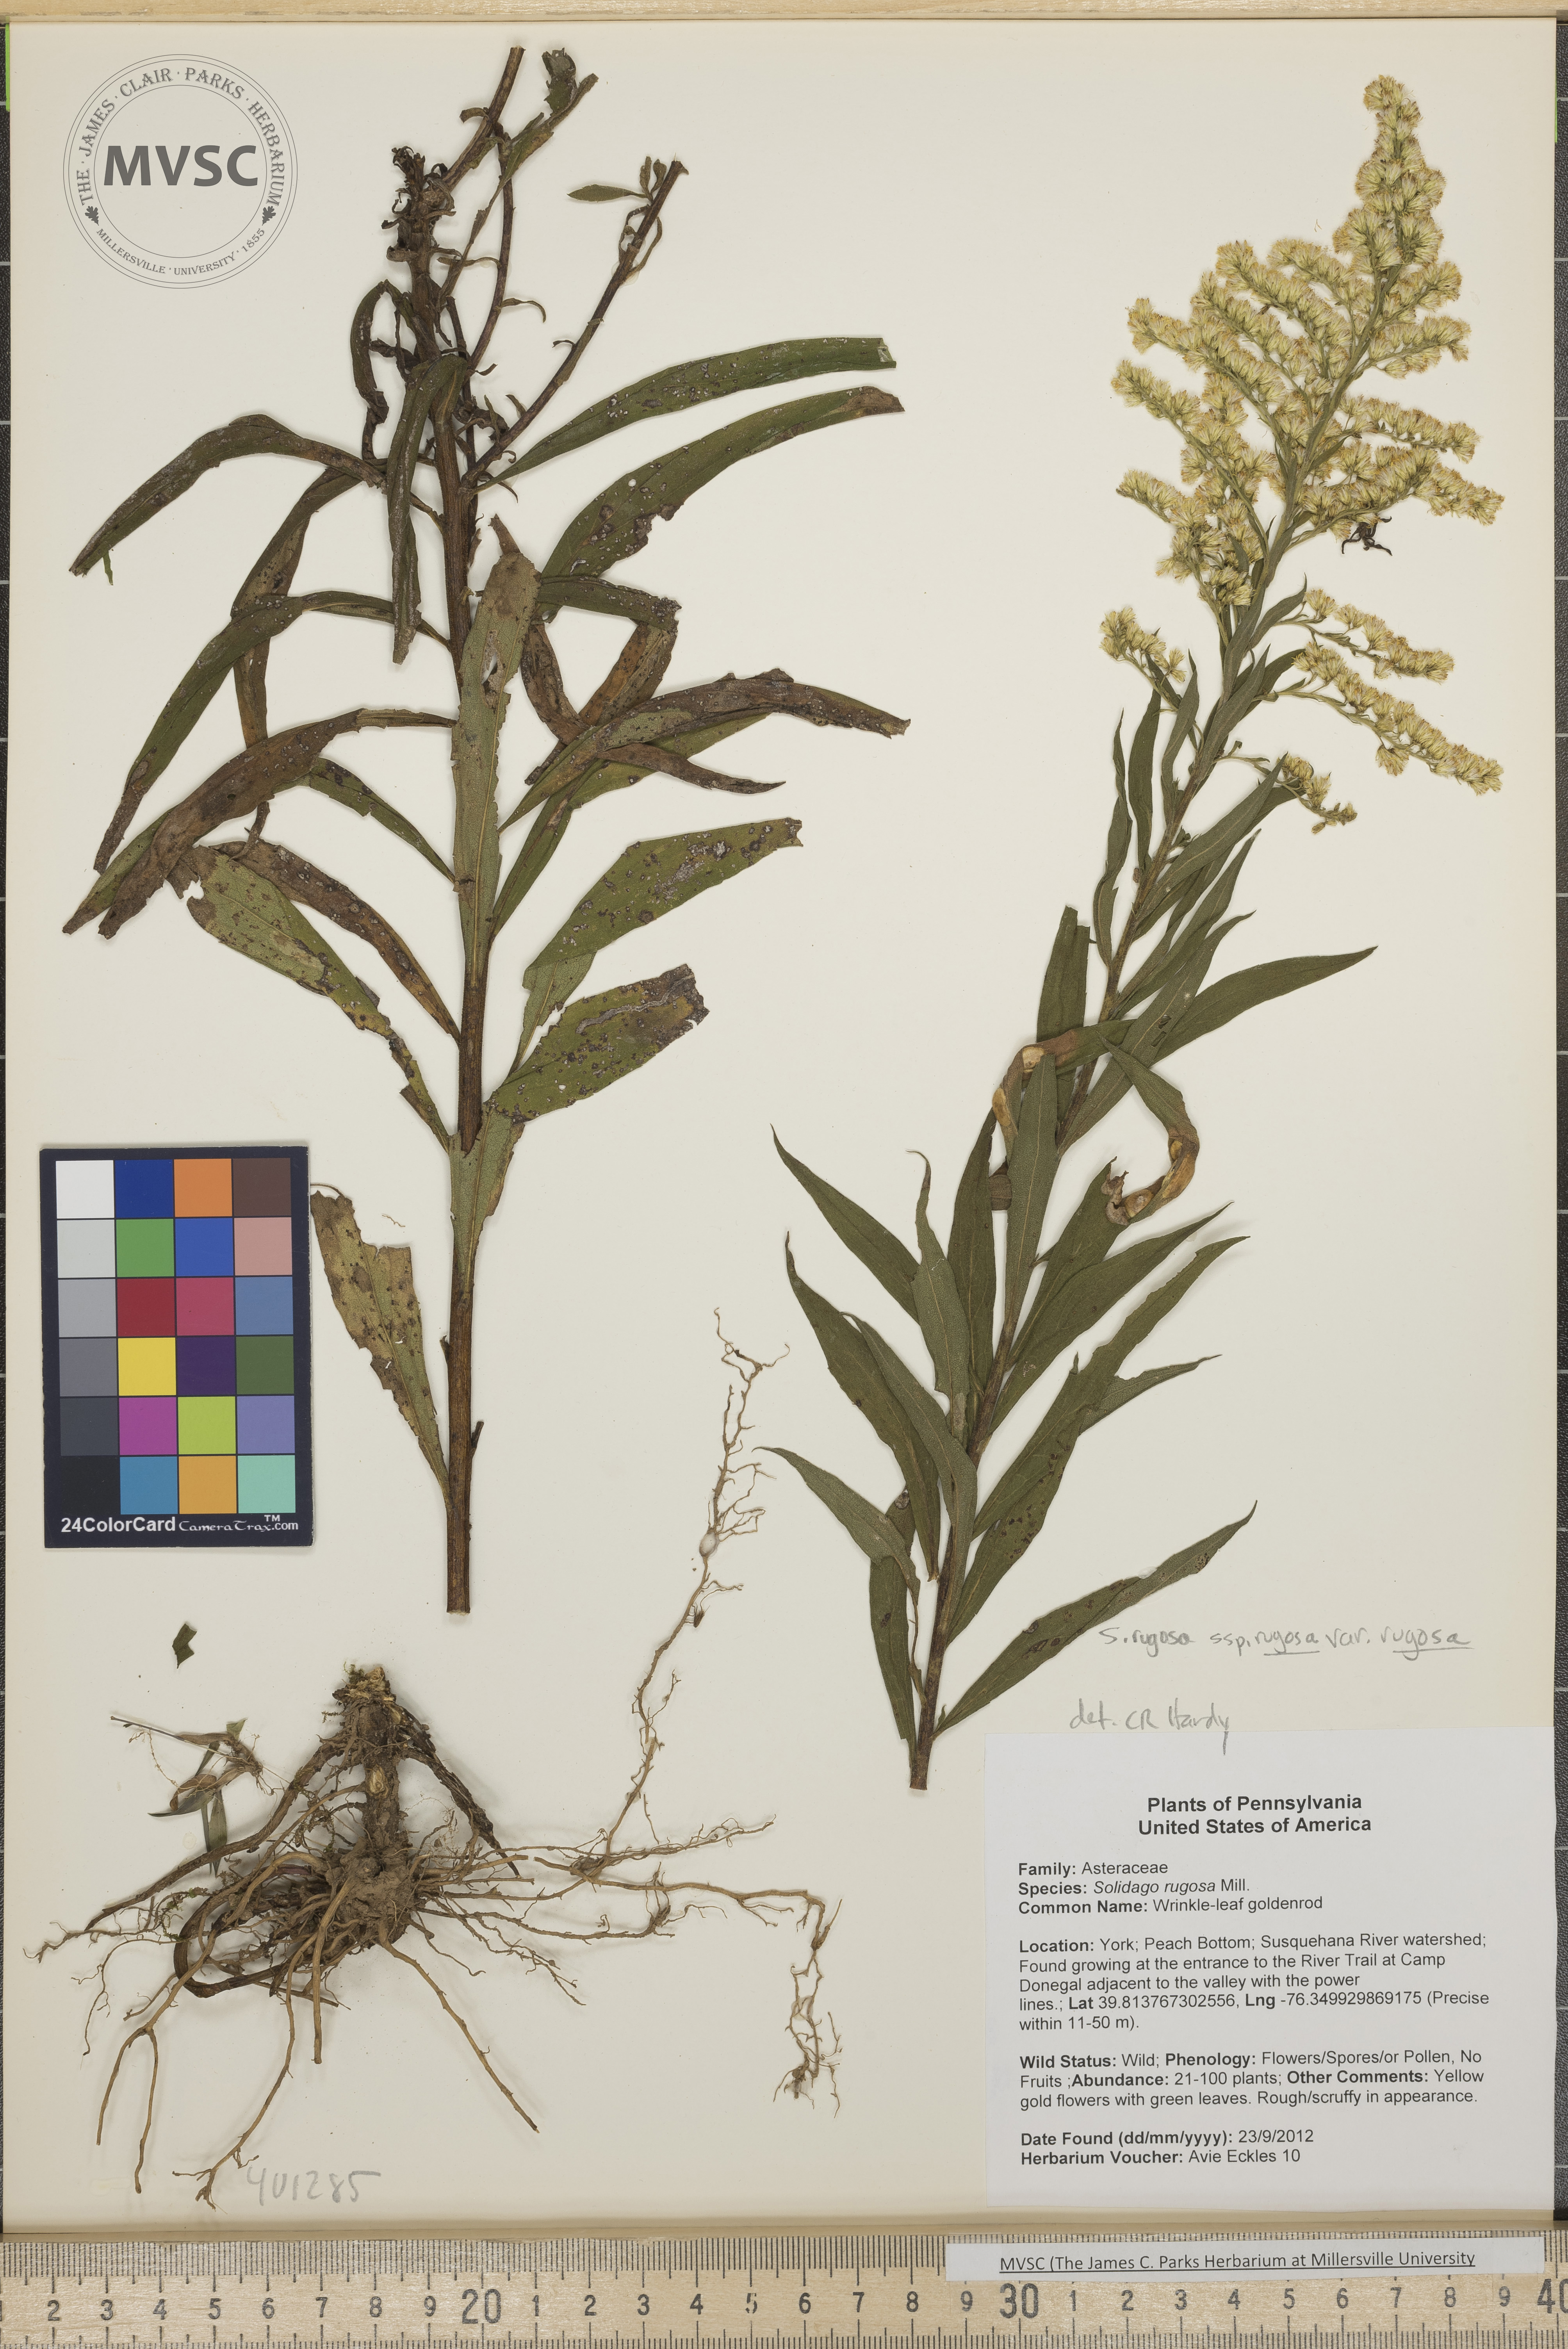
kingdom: Plantae
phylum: Tracheophyta
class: Magnoliopsida
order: Asterales
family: Asteraceae
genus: Solidago
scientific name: Solidago rugosa
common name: wrinkle-leaf goldenrod
